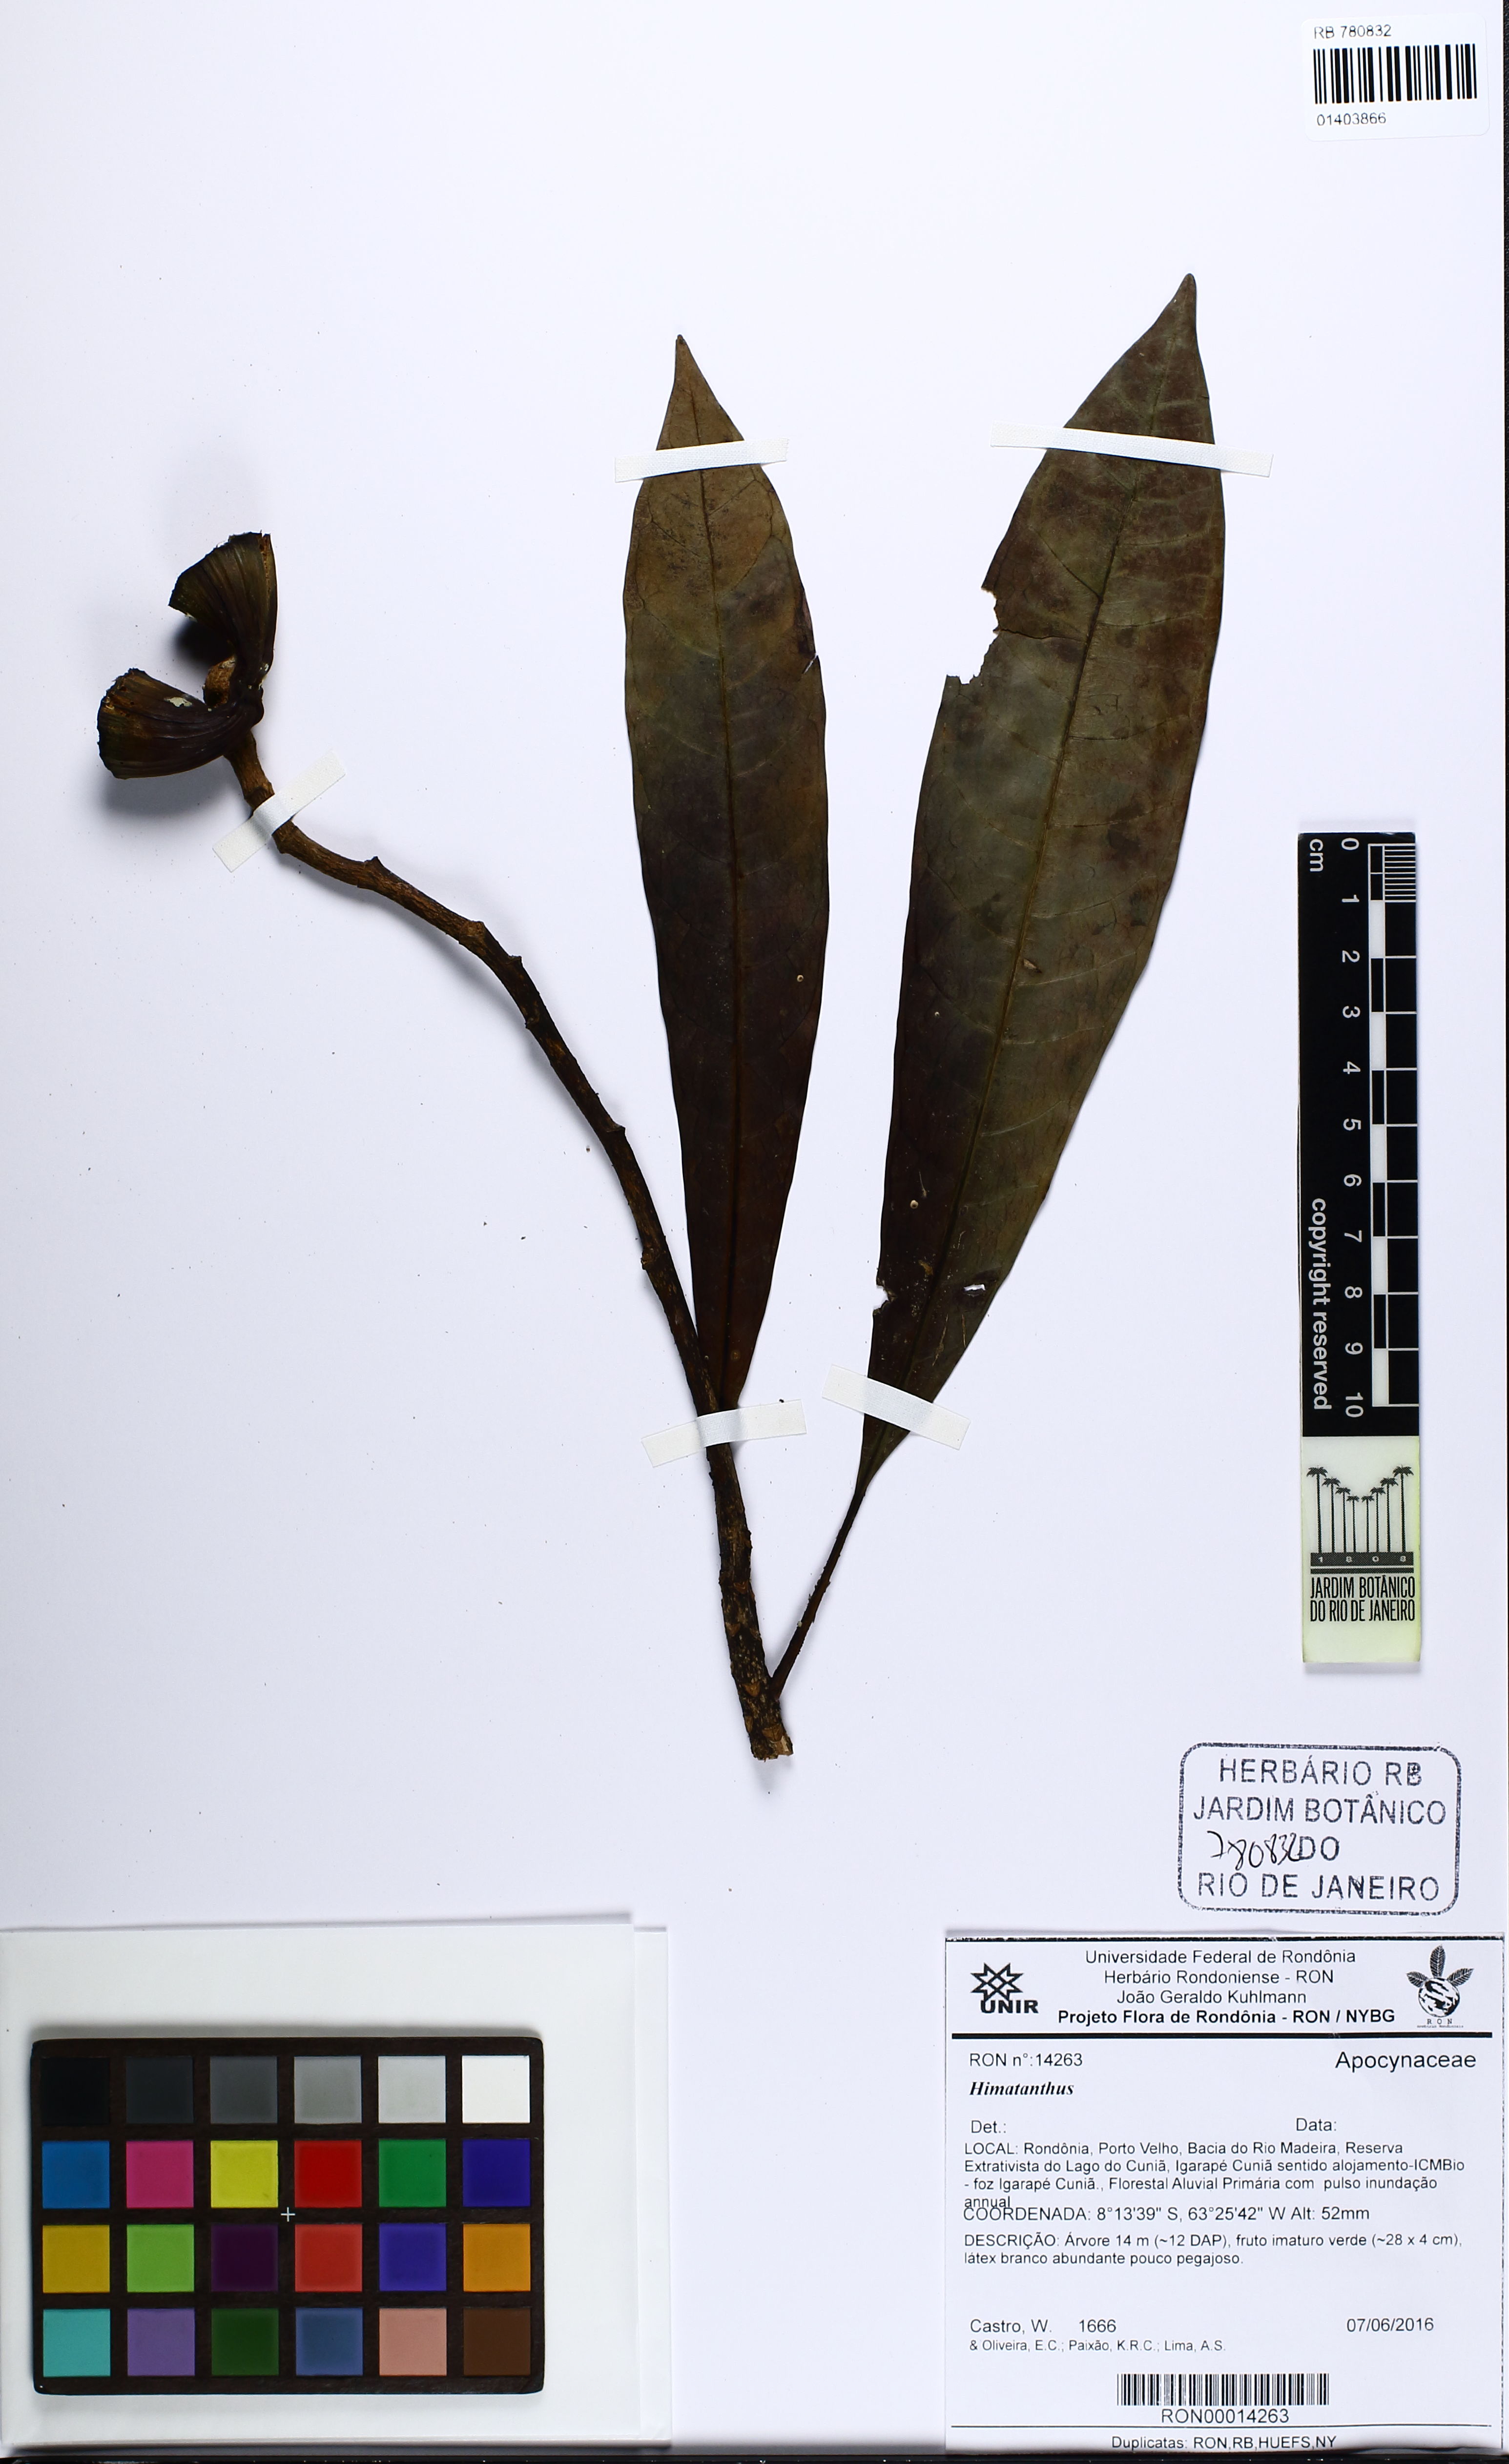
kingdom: Plantae
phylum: Tracheophyta
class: Magnoliopsida
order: Gentianales
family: Apocynaceae
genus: Himatanthus
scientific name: Himatanthus
